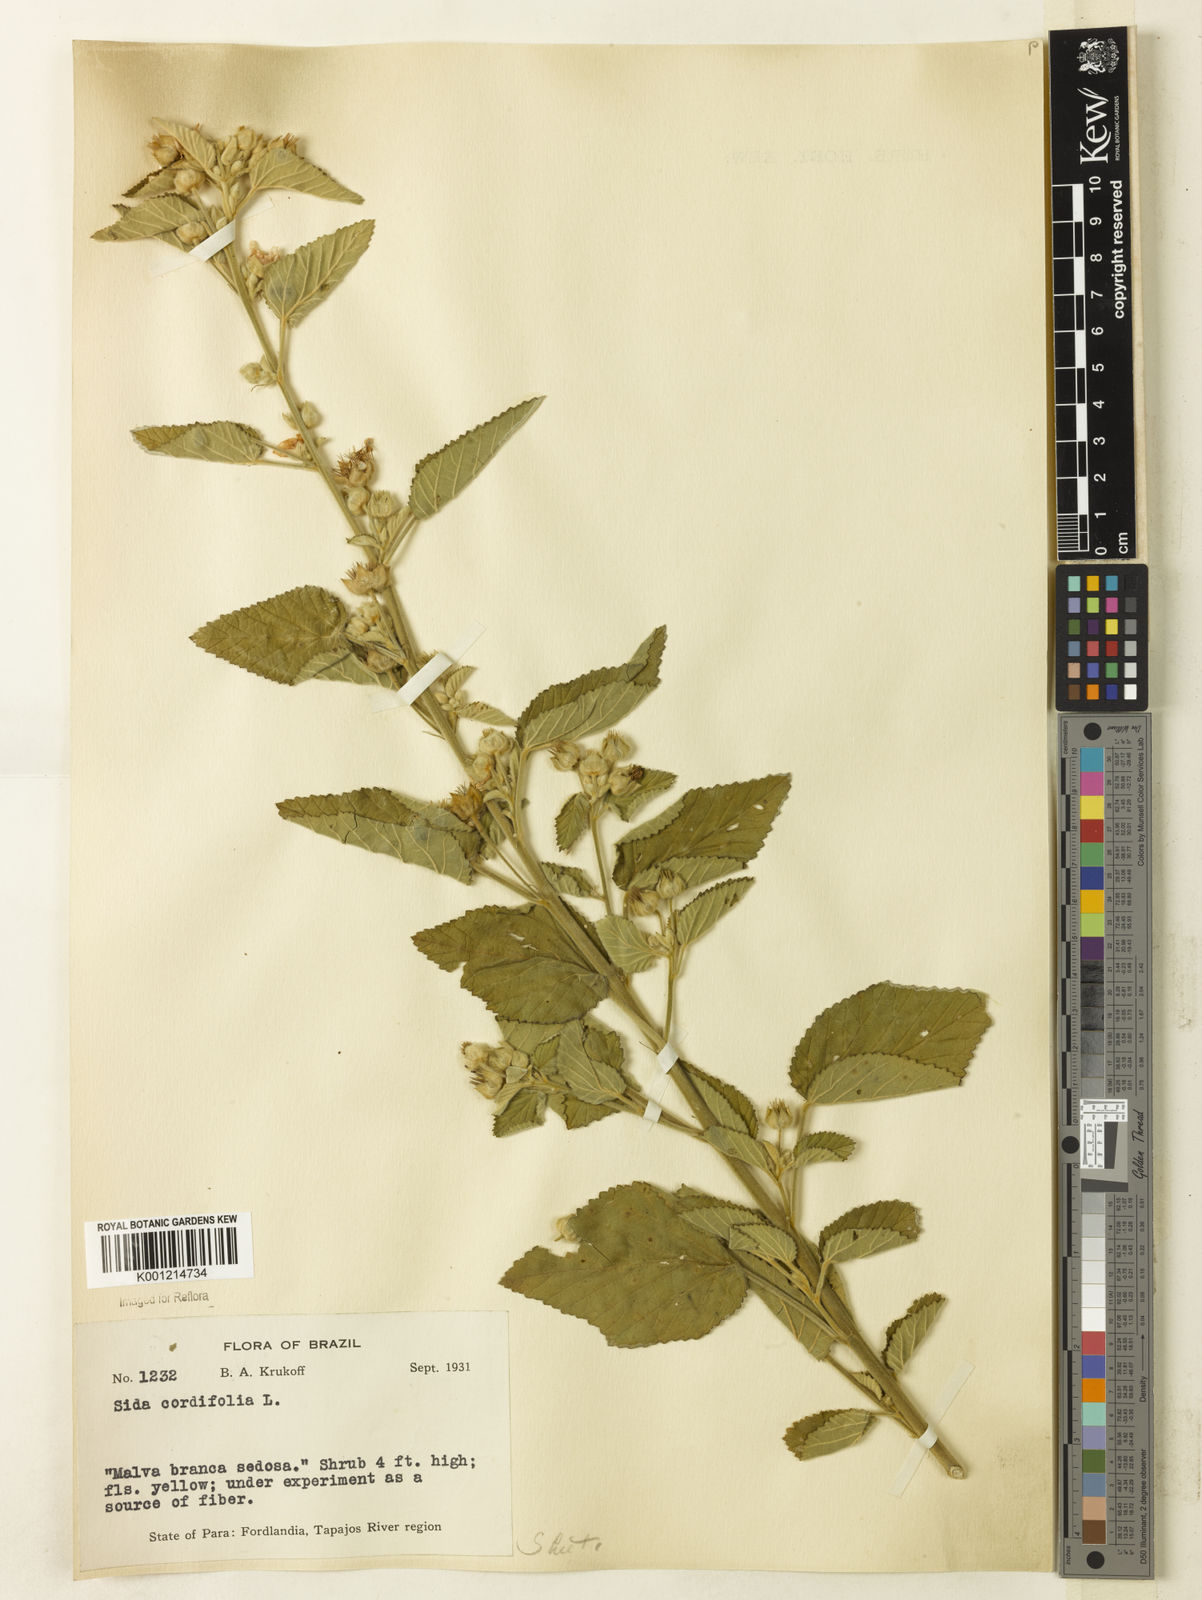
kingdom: Plantae
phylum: Tracheophyta
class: Magnoliopsida
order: Malvales
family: Malvaceae
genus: Sida
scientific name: Sida cordifolia
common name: Ilima
